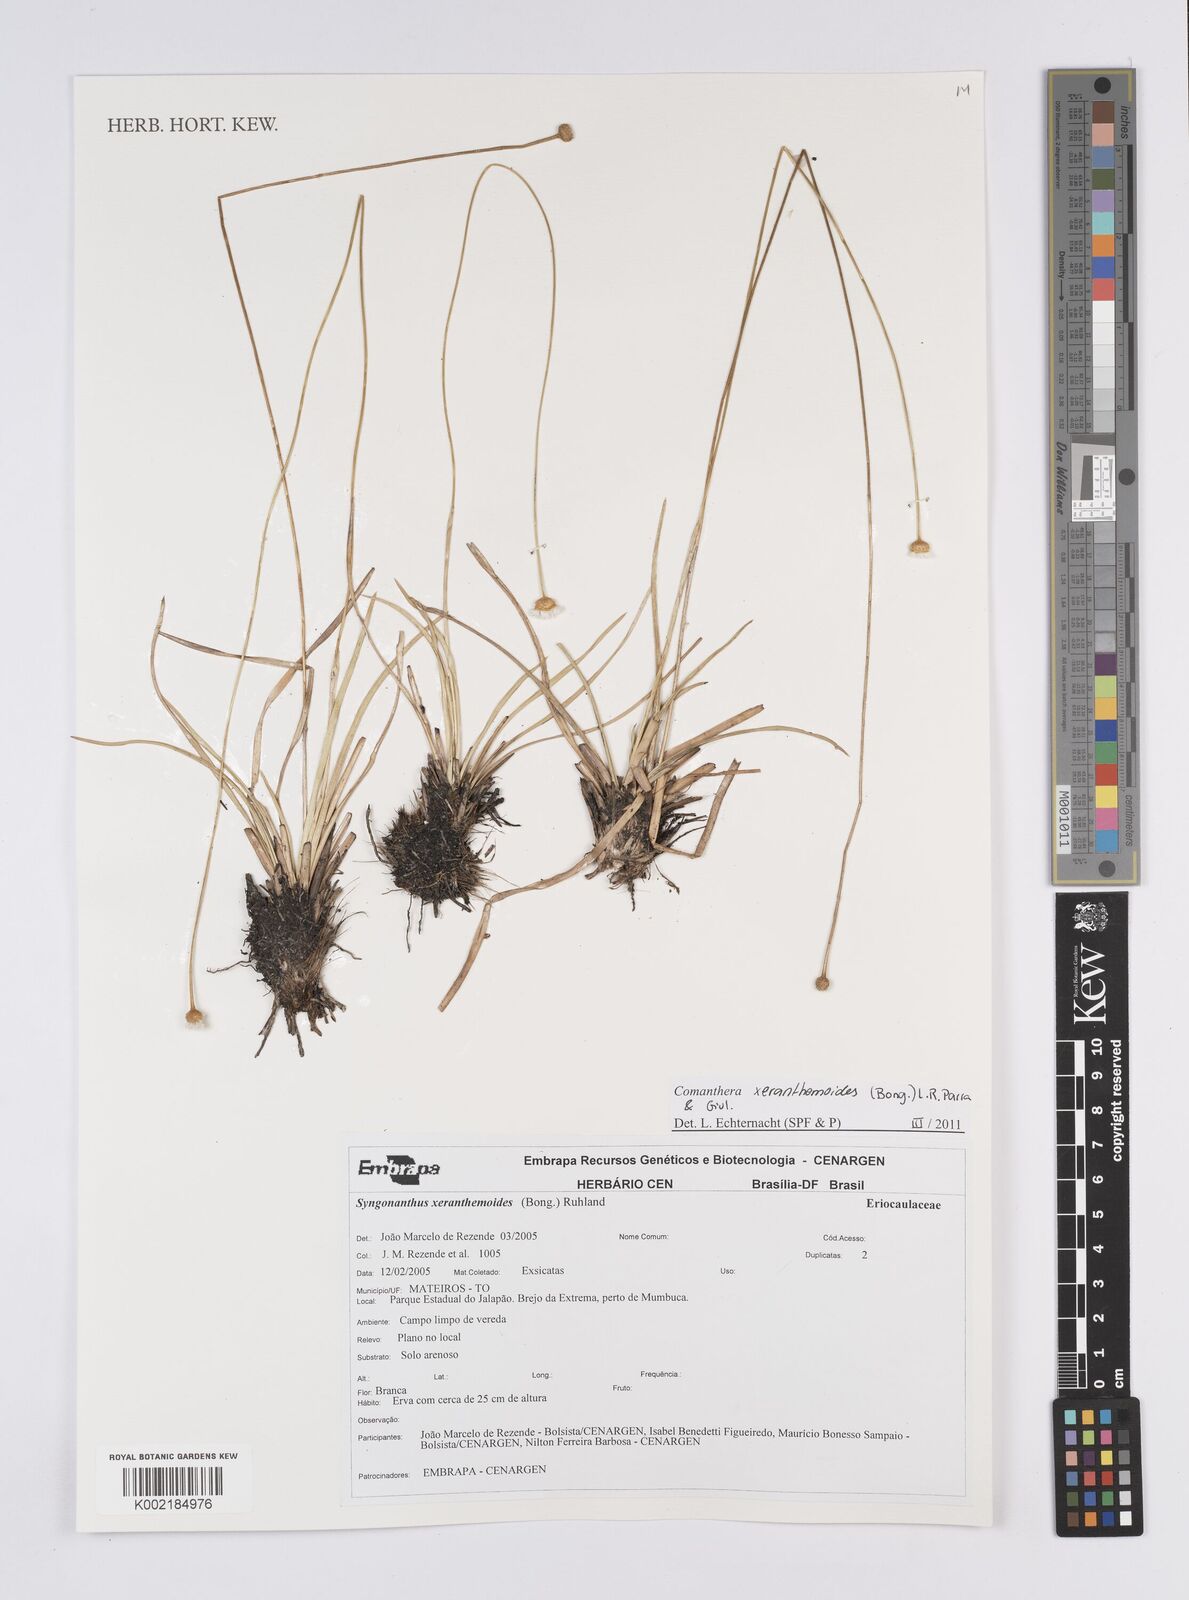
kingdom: Plantae
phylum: Tracheophyta
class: Liliopsida
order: Poales
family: Eriocaulaceae
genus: Comanthera
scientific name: Comanthera xeranthemoides
